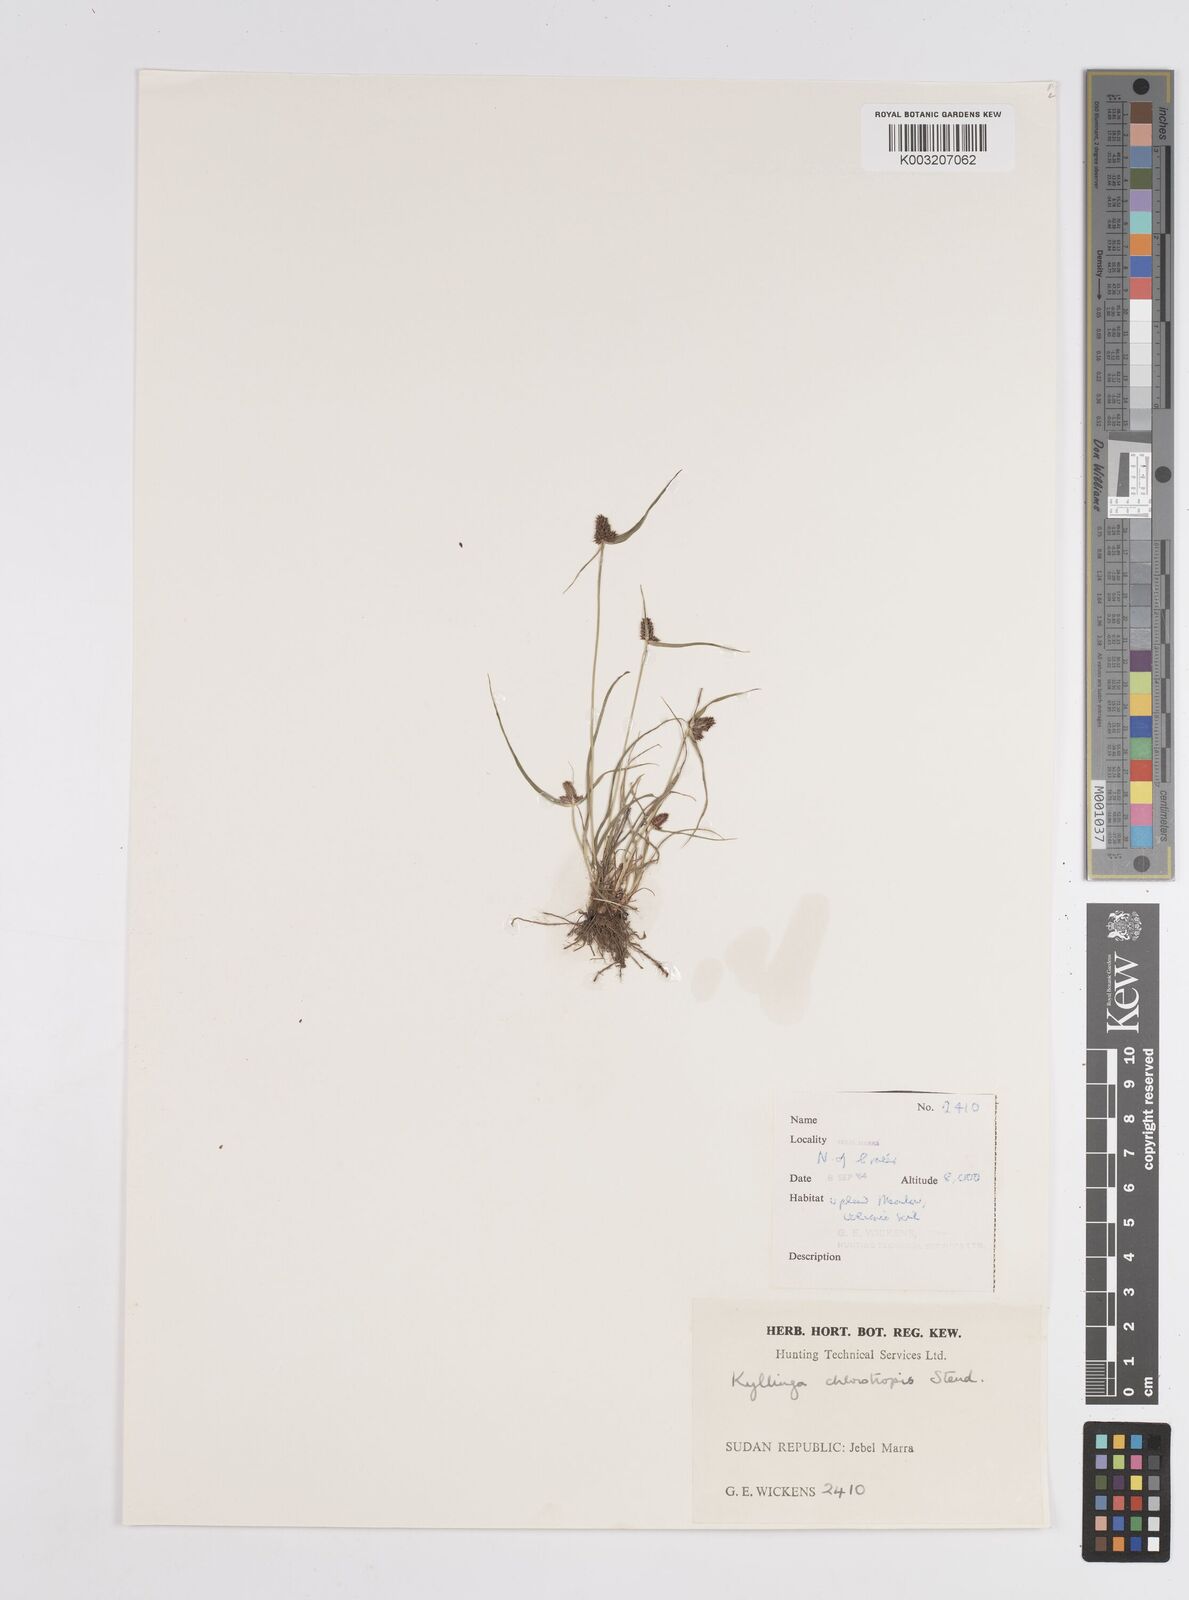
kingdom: Plantae
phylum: Tracheophyta
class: Liliopsida
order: Poales
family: Cyperaceae
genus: Cyperus
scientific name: Cyperus chlorotropis
